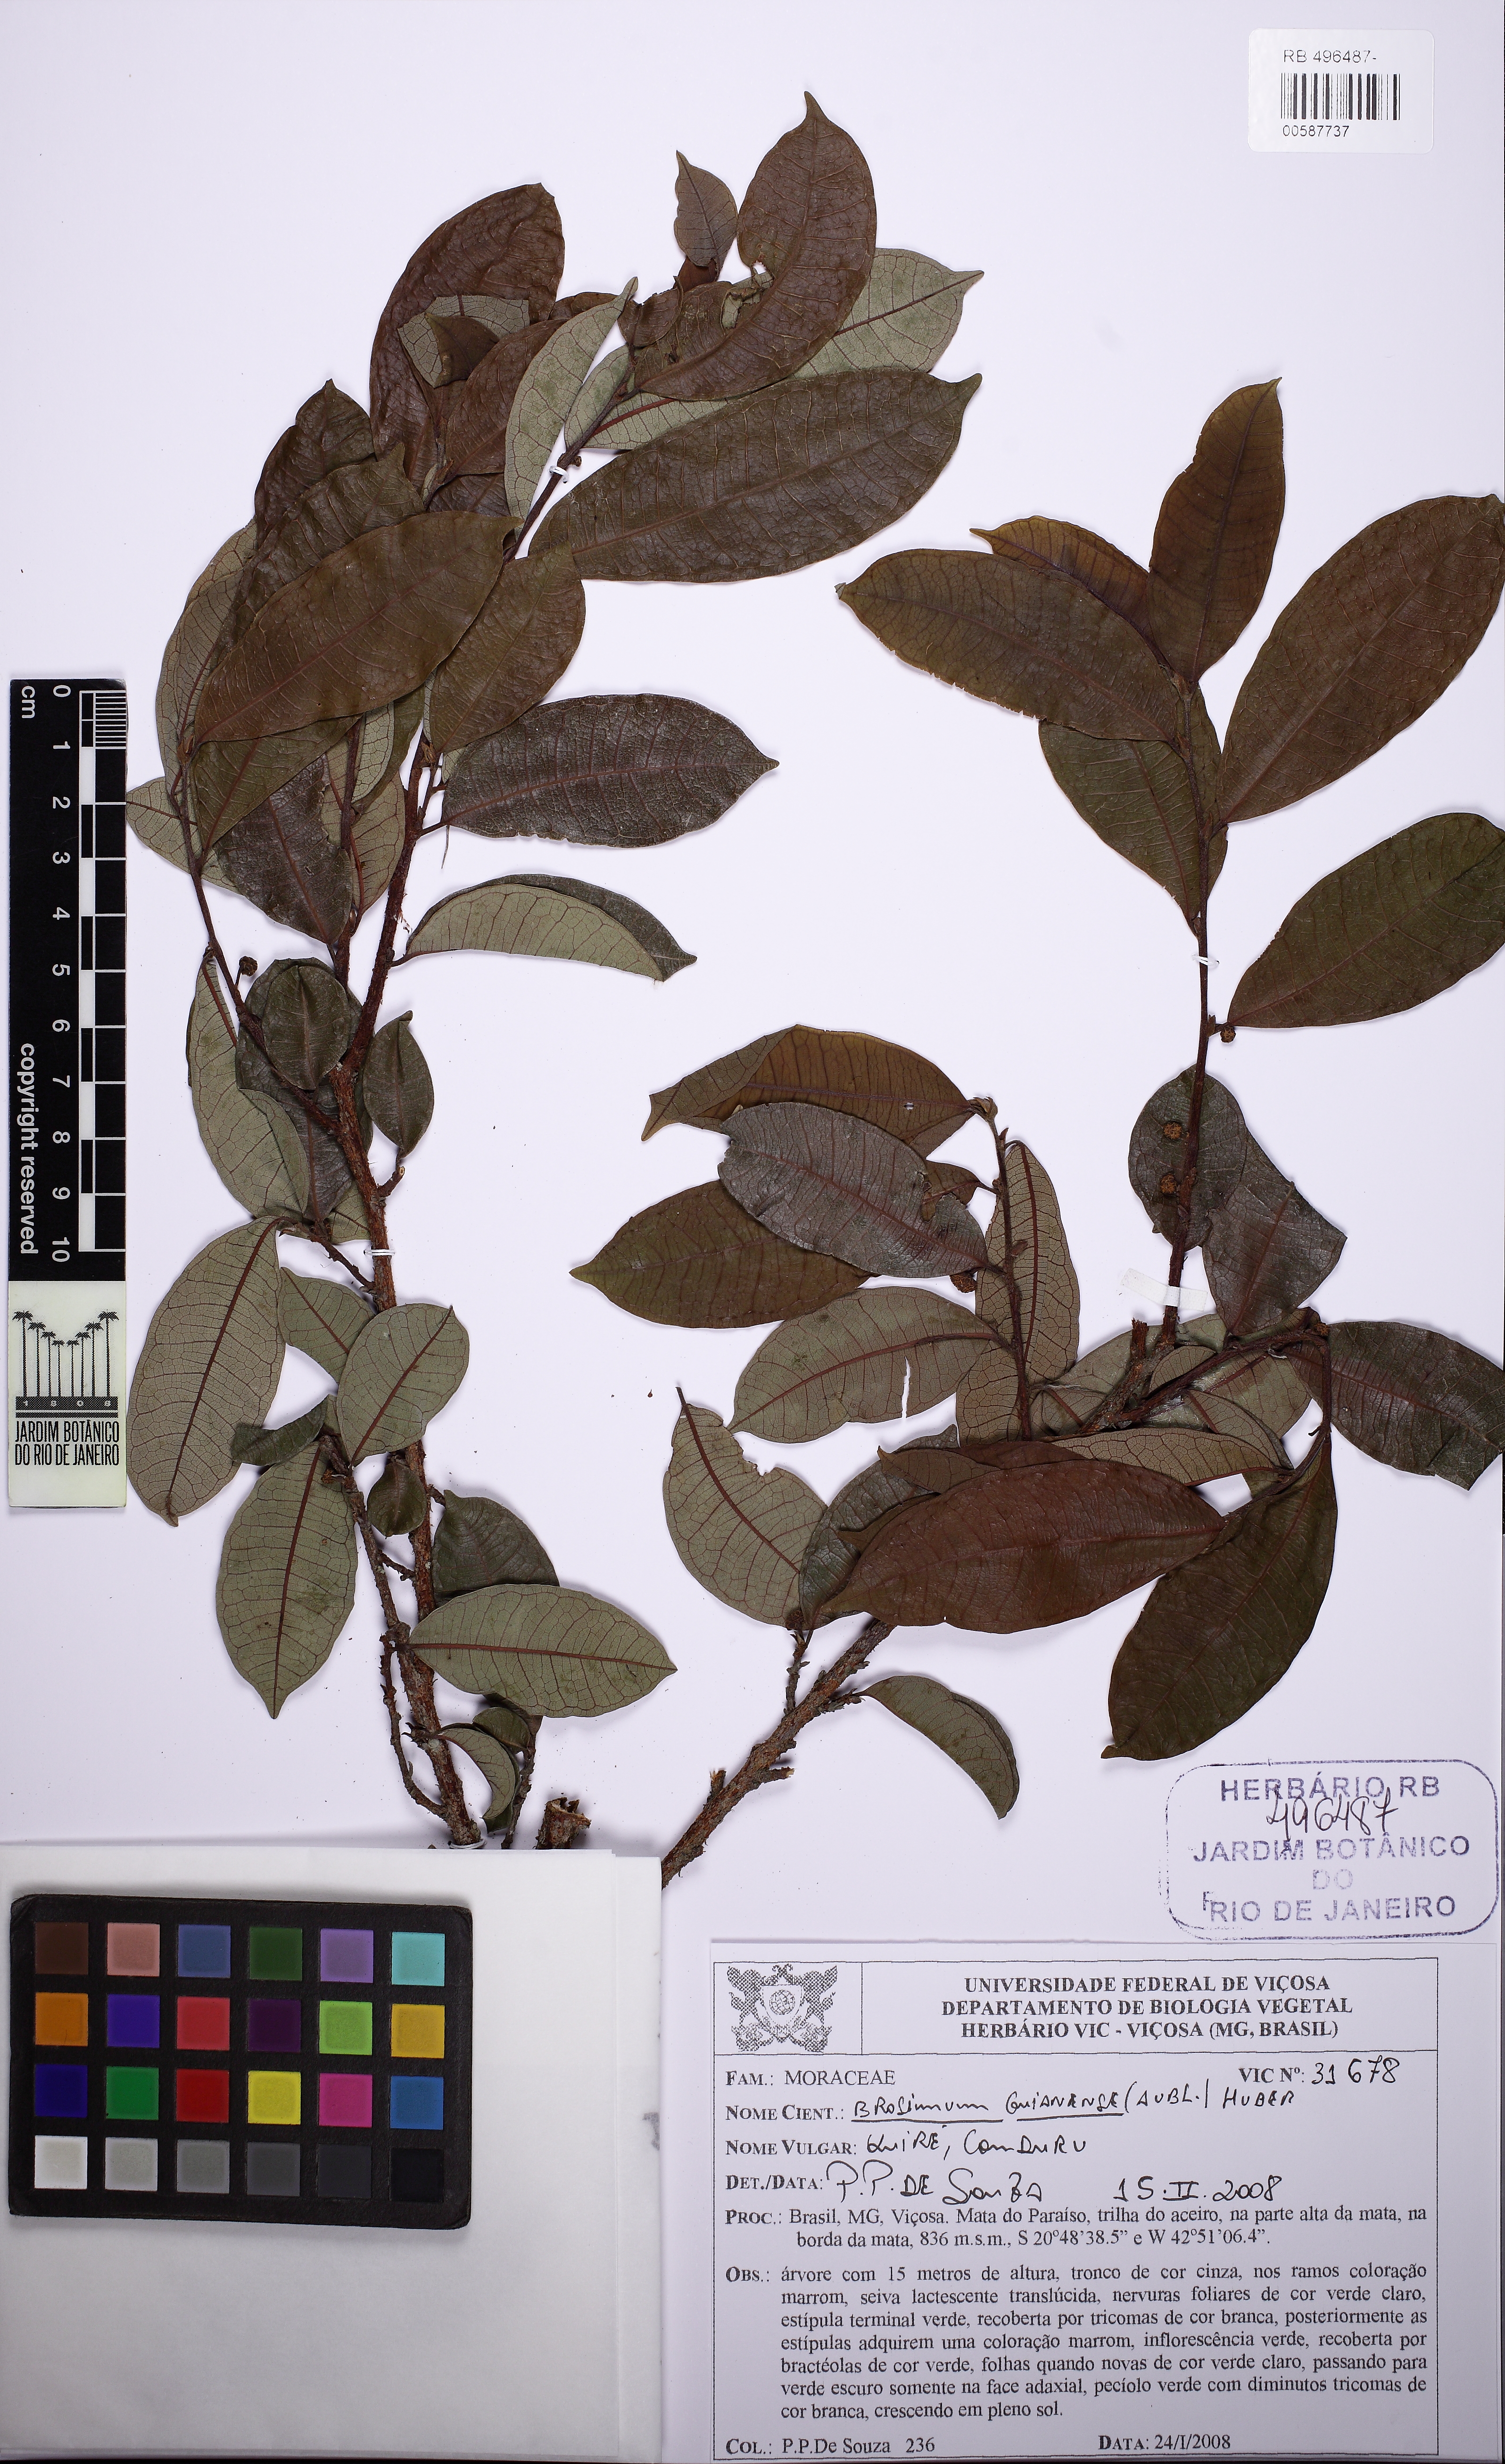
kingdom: Plantae
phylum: Tracheophyta
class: Magnoliopsida
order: Rosales
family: Moraceae
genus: Brosimum
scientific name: Brosimum guianense
